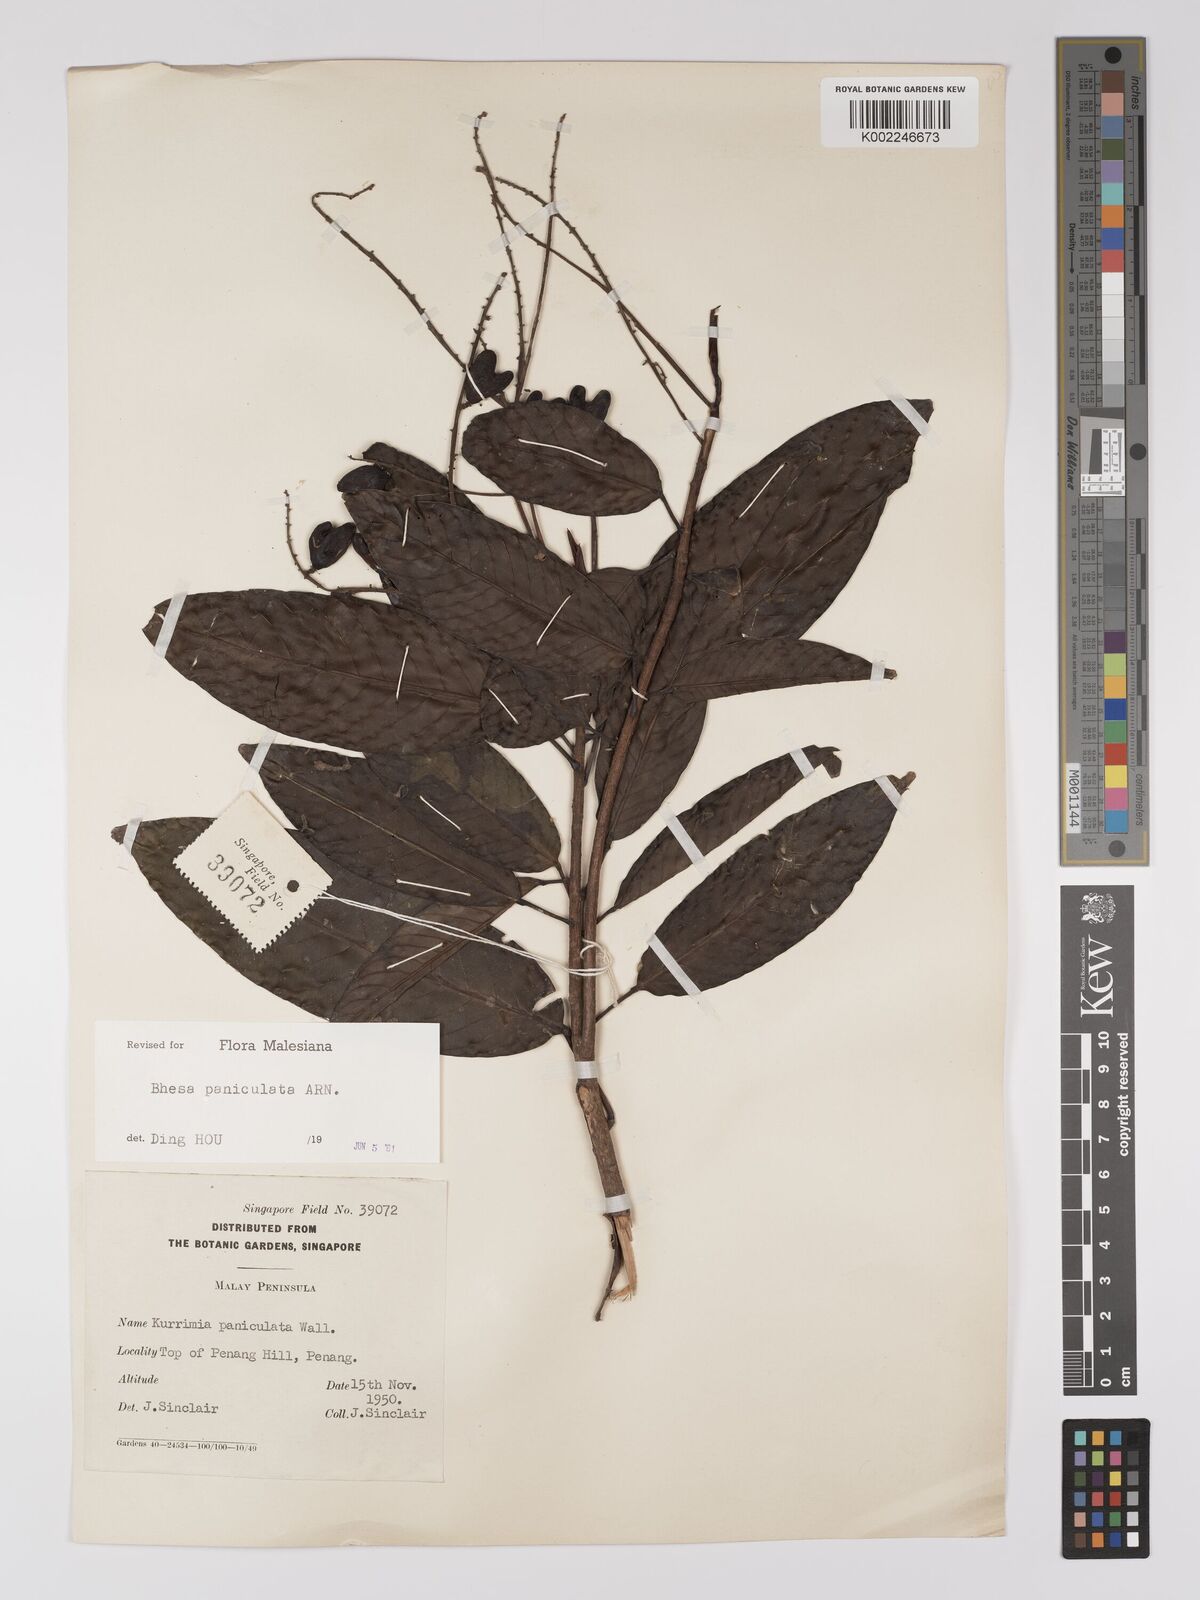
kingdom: Plantae
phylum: Tracheophyta
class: Magnoliopsida
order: Malpighiales
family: Centroplacaceae
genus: Bhesa
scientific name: Bhesa paniculata
